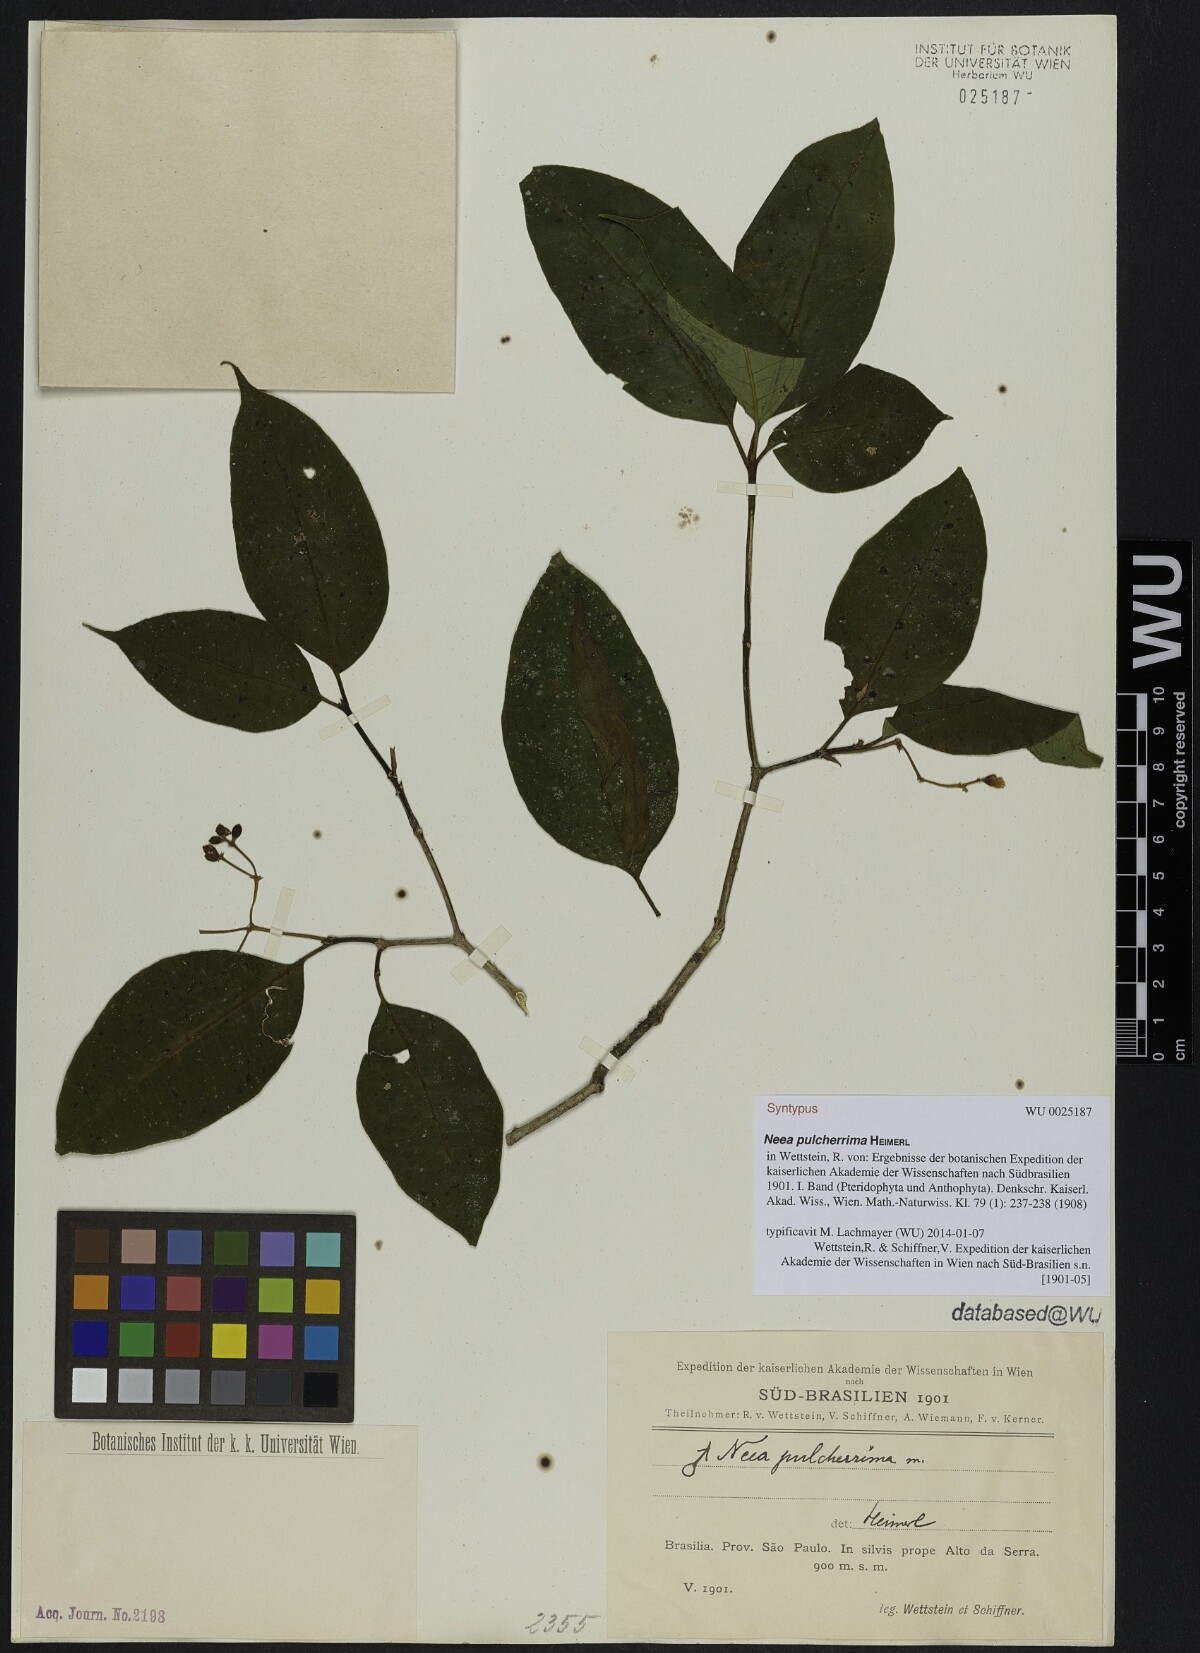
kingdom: Plantae
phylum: Tracheophyta
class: Magnoliopsida
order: Caryophyllales
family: Nyctaginaceae
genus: Neea
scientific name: Neea pulcherrima
